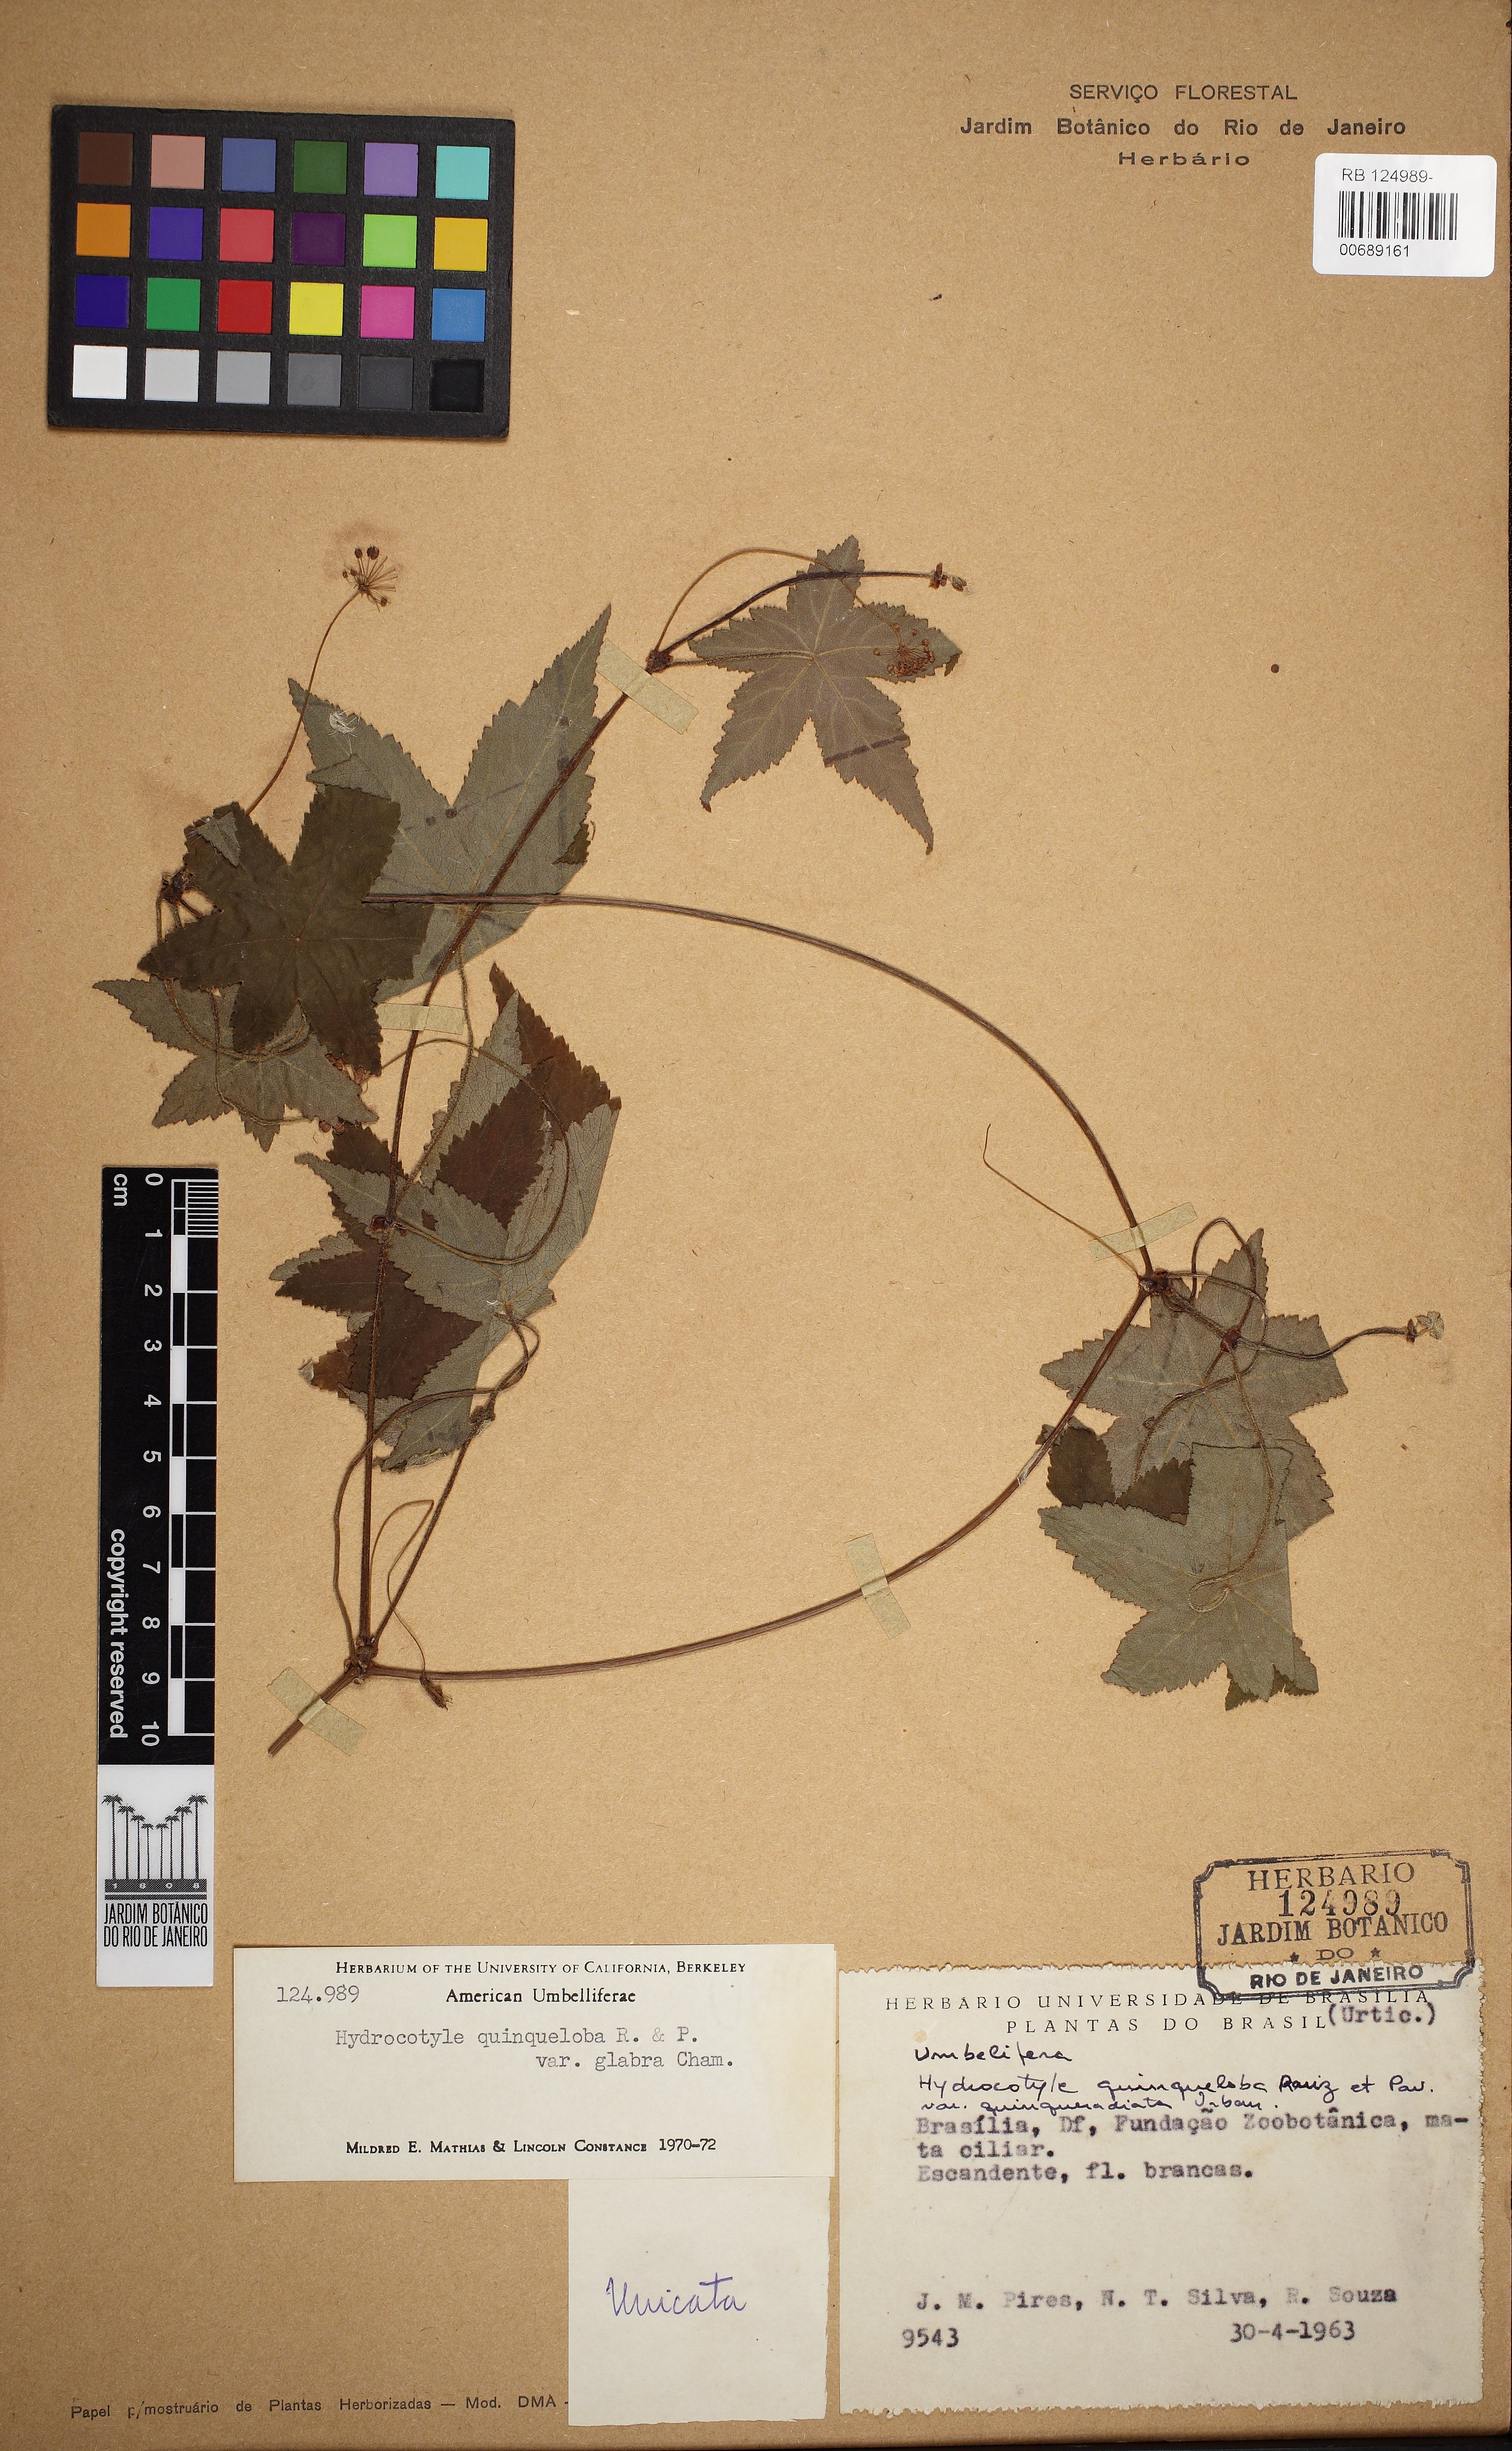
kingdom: Plantae
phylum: Tracheophyta
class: Magnoliopsida
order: Apiales
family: Araliaceae
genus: Hydrocotyle
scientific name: Hydrocotyle quinqueloba
